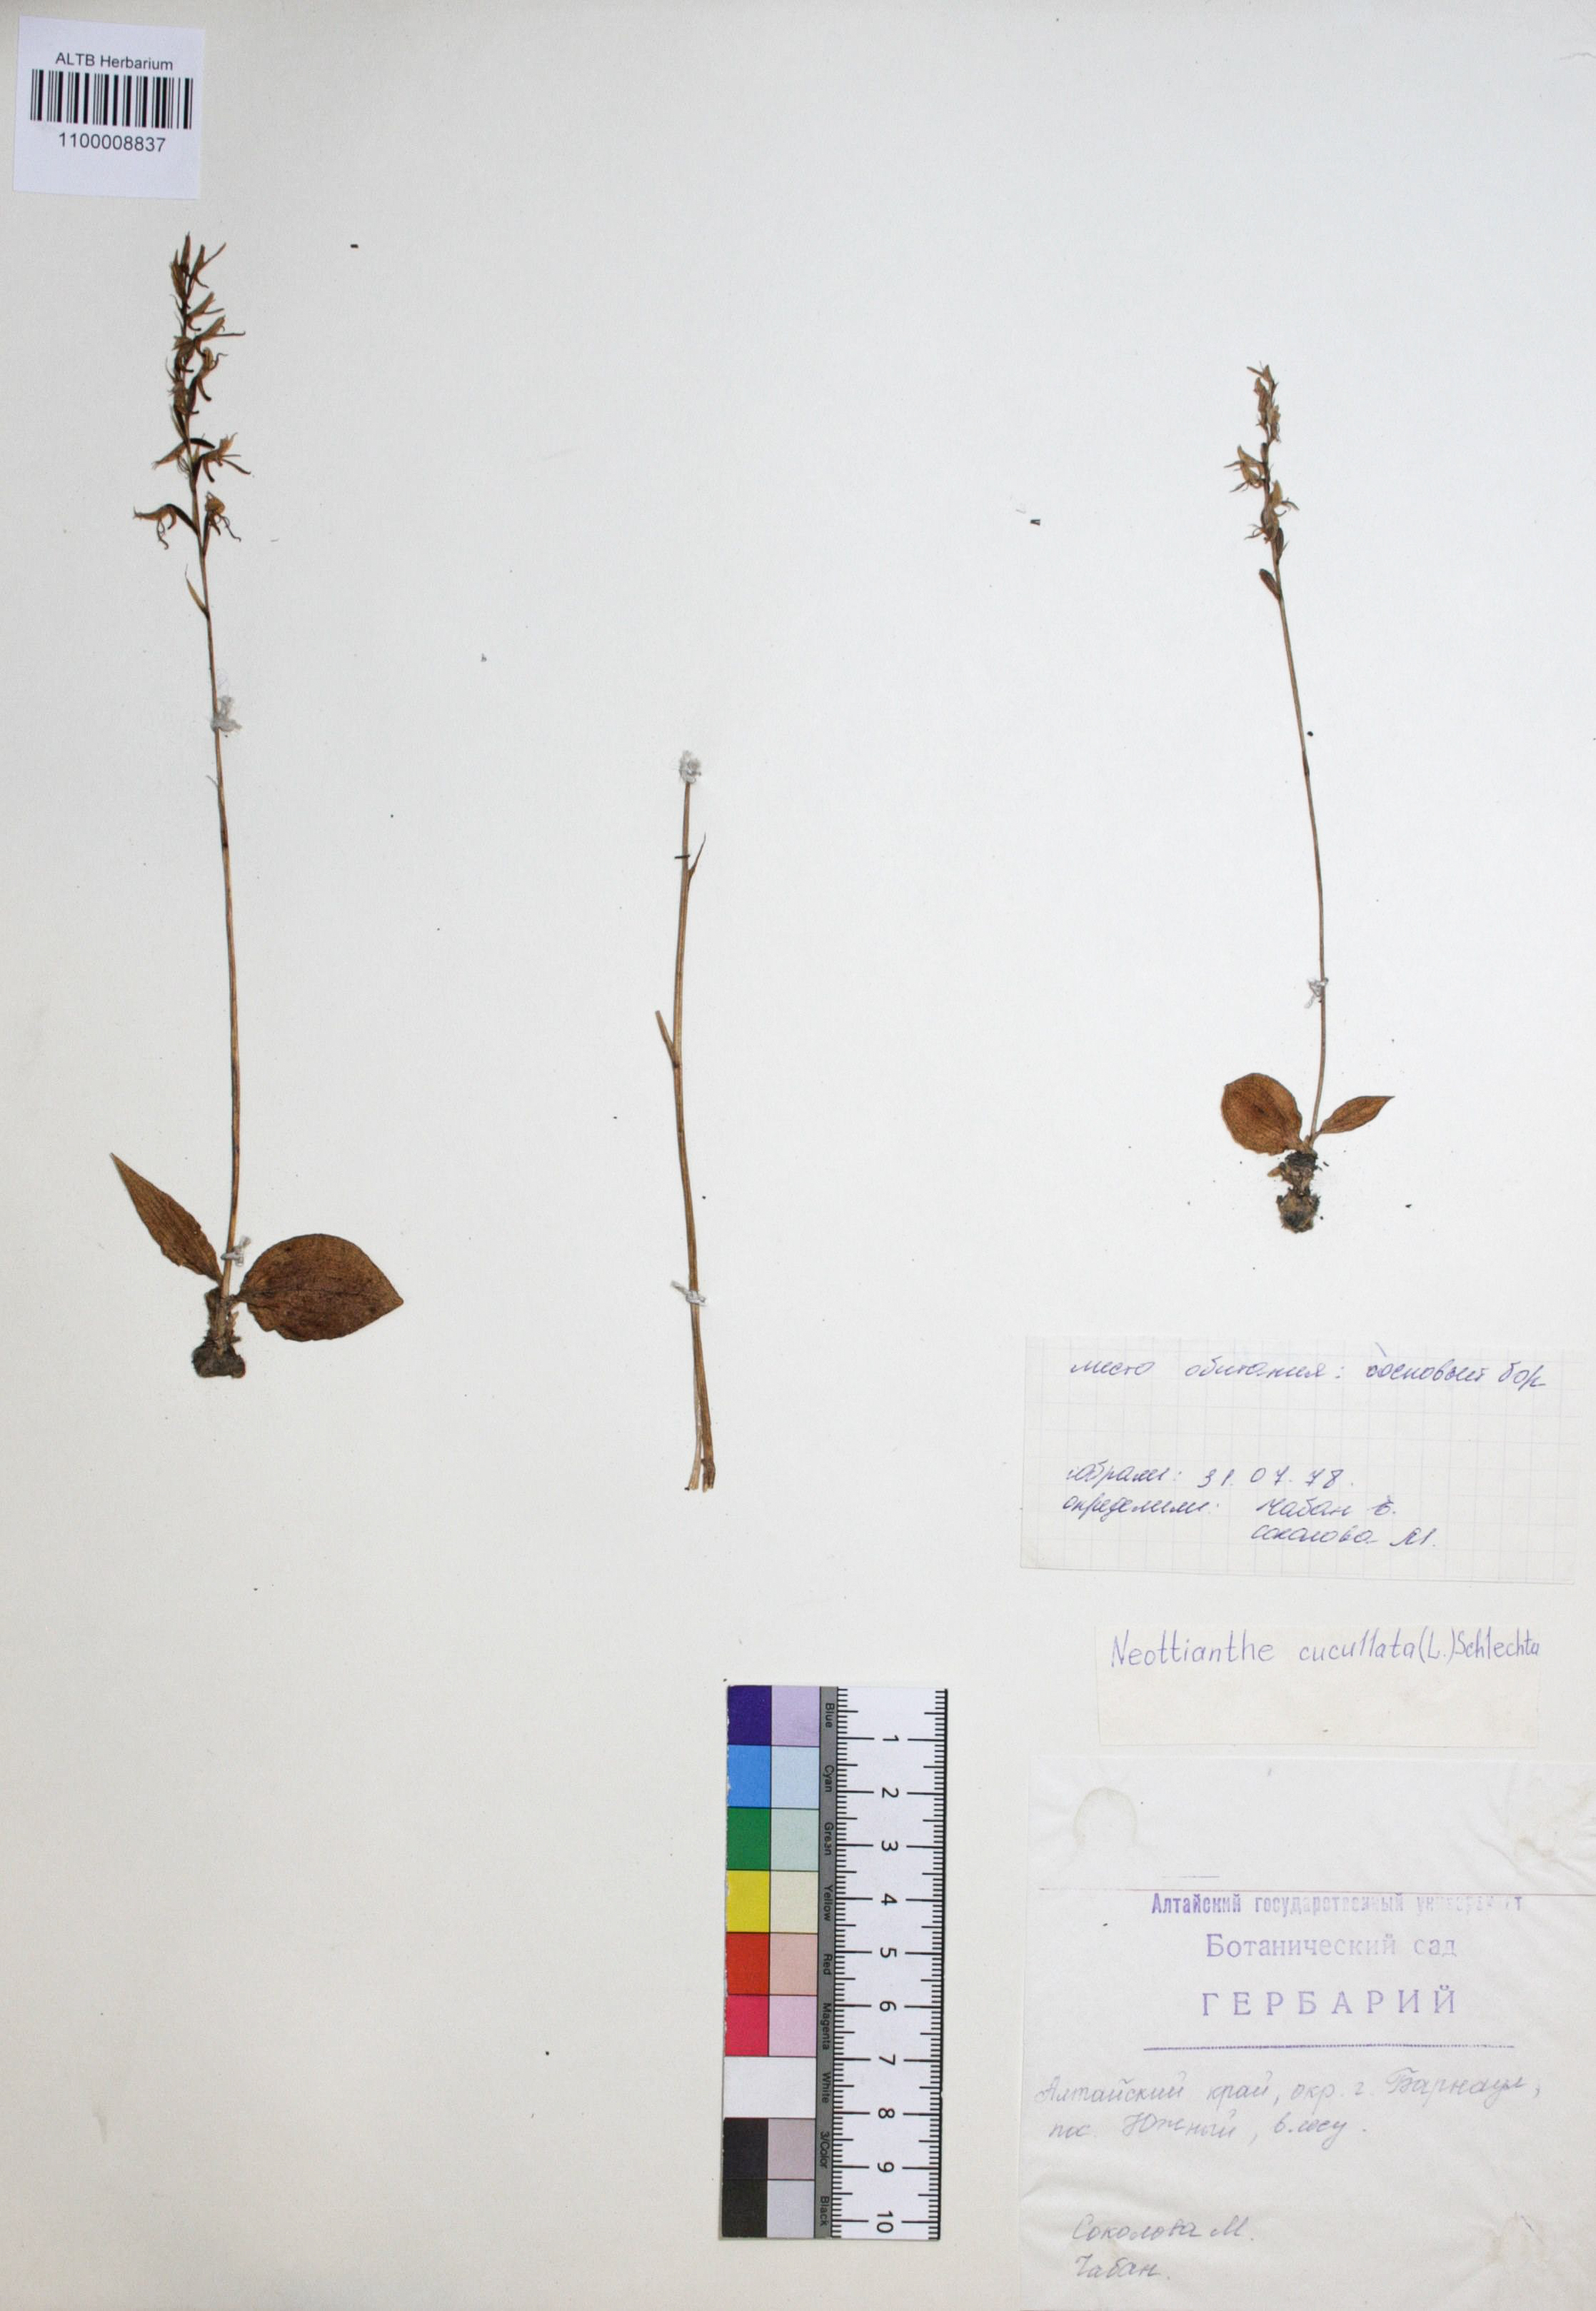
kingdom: Plantae
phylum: Tracheophyta
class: Liliopsida
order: Asparagales
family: Orchidaceae
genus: Hemipilia
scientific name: Hemipilia cucullata
